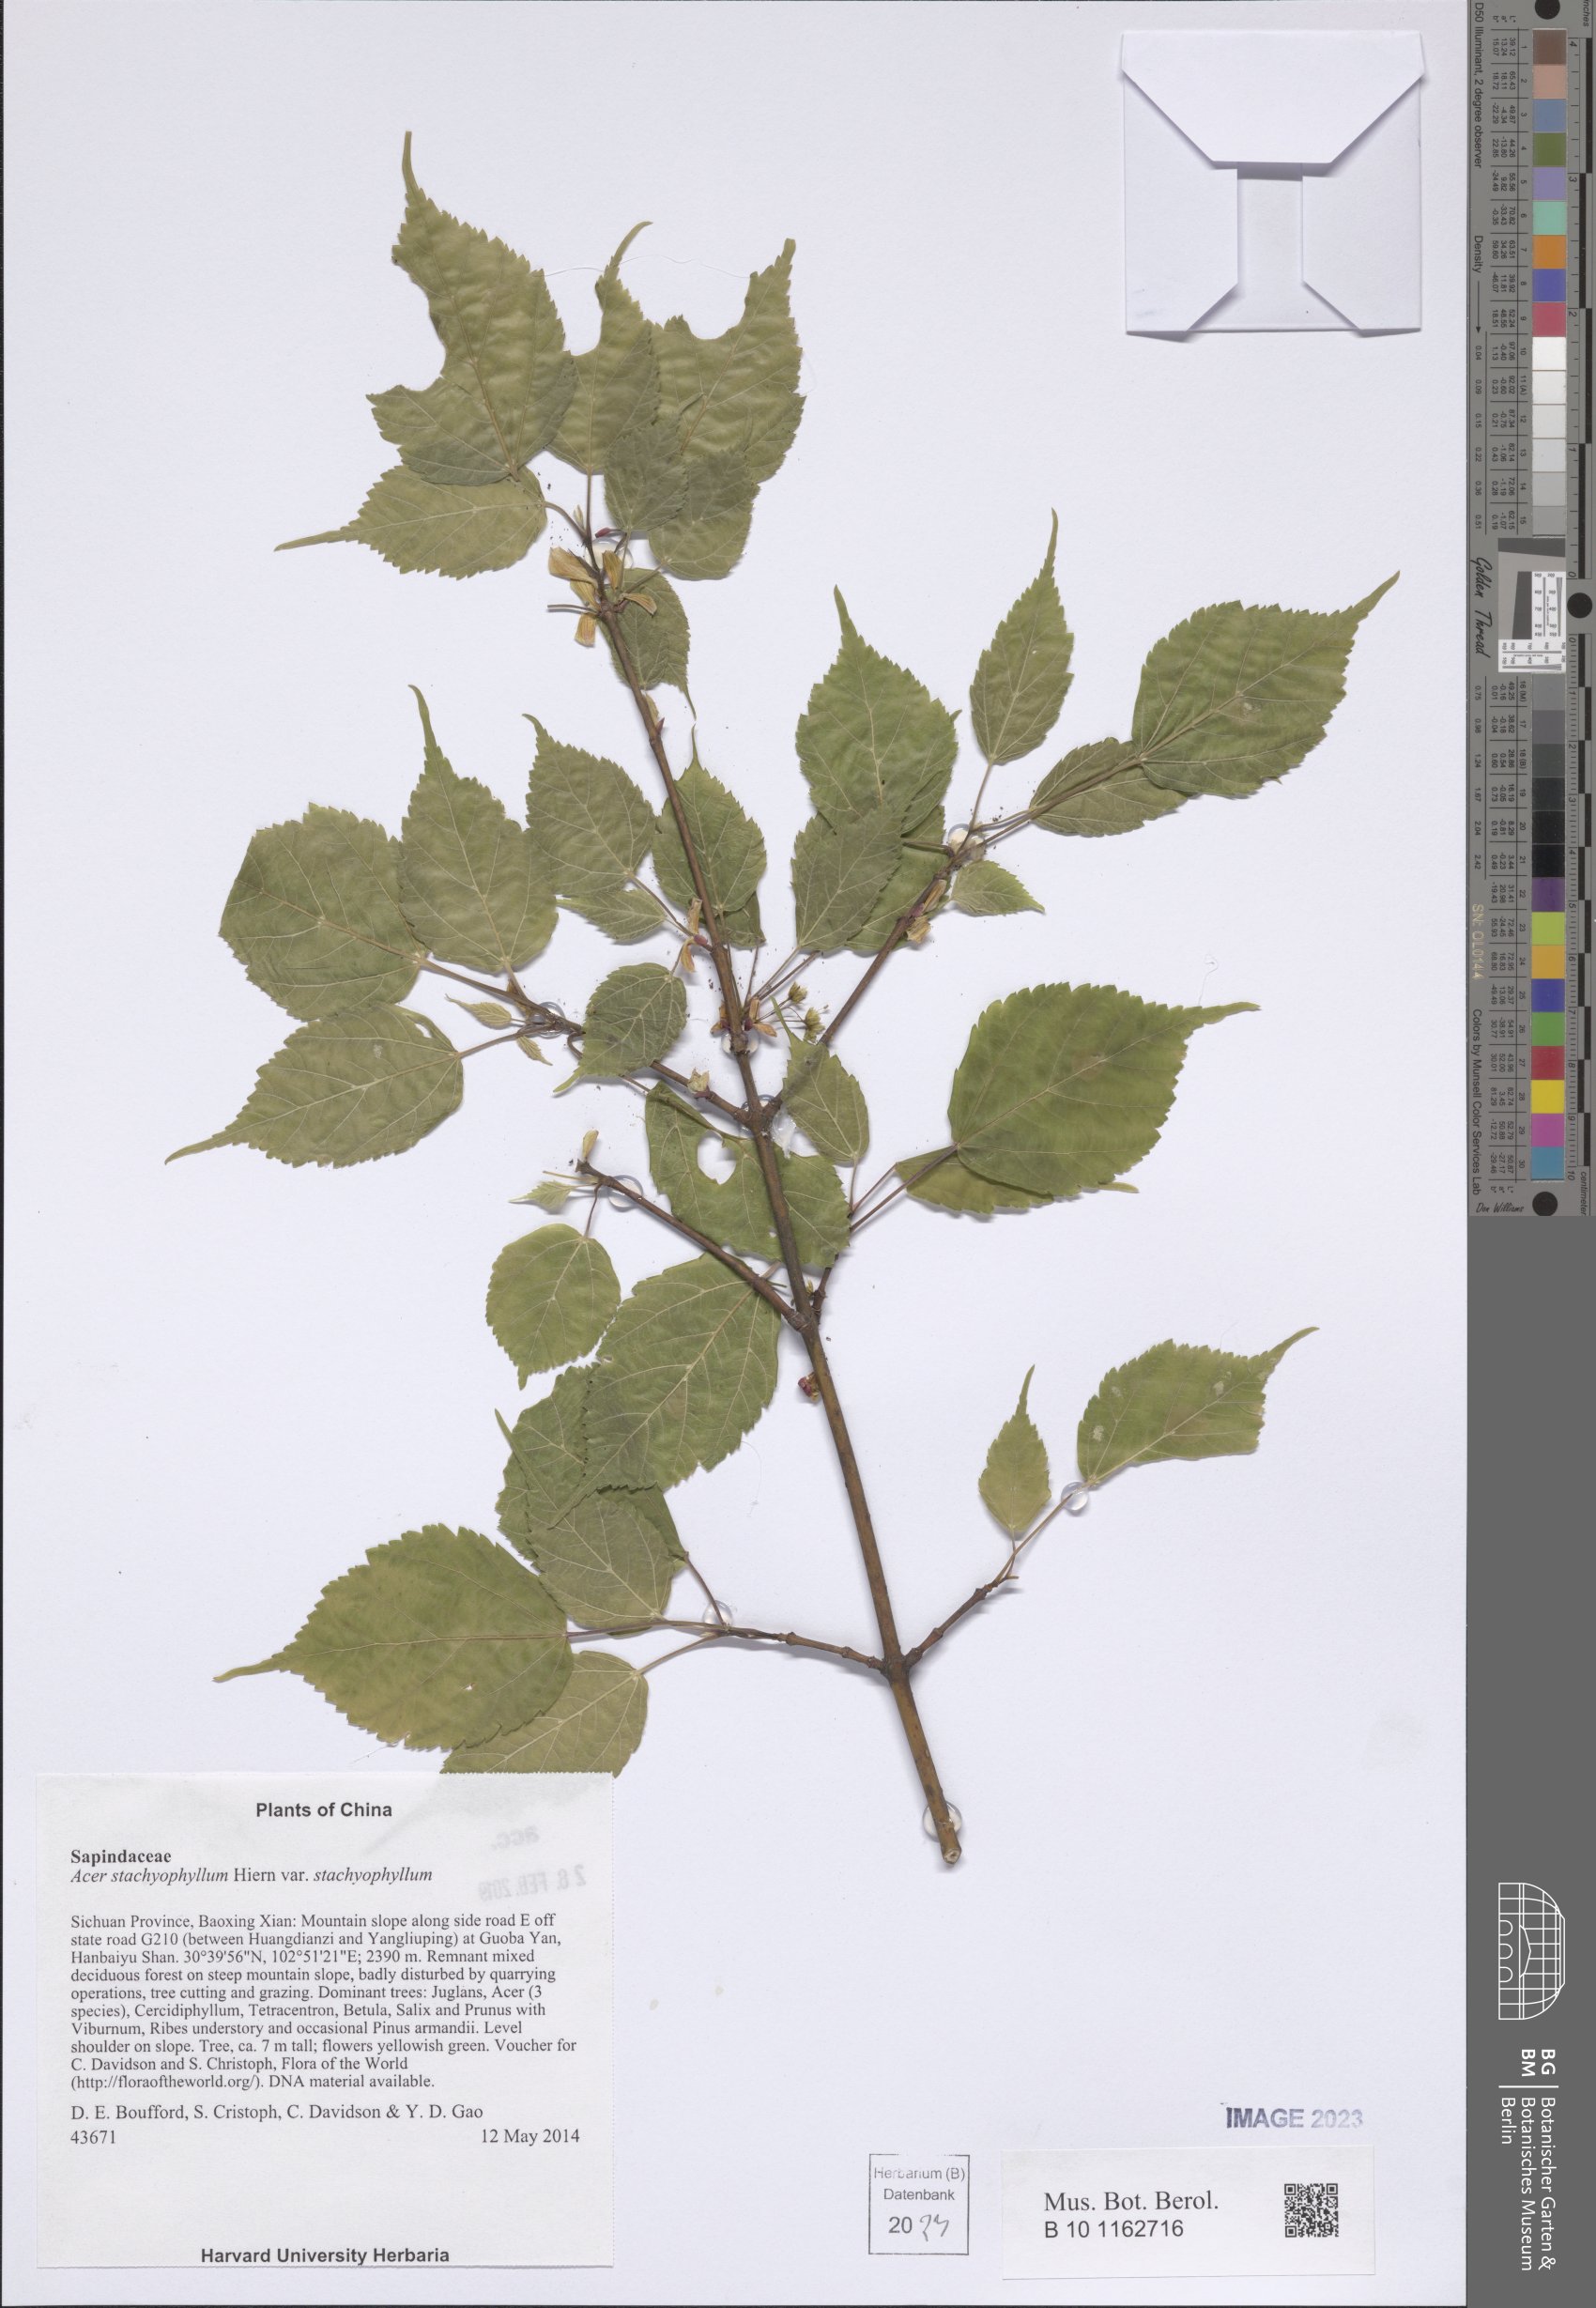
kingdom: Plantae
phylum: Tracheophyta
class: Magnoliopsida
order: Sapindales
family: Sapindaceae
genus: Acer
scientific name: Acer stachyophyllum
